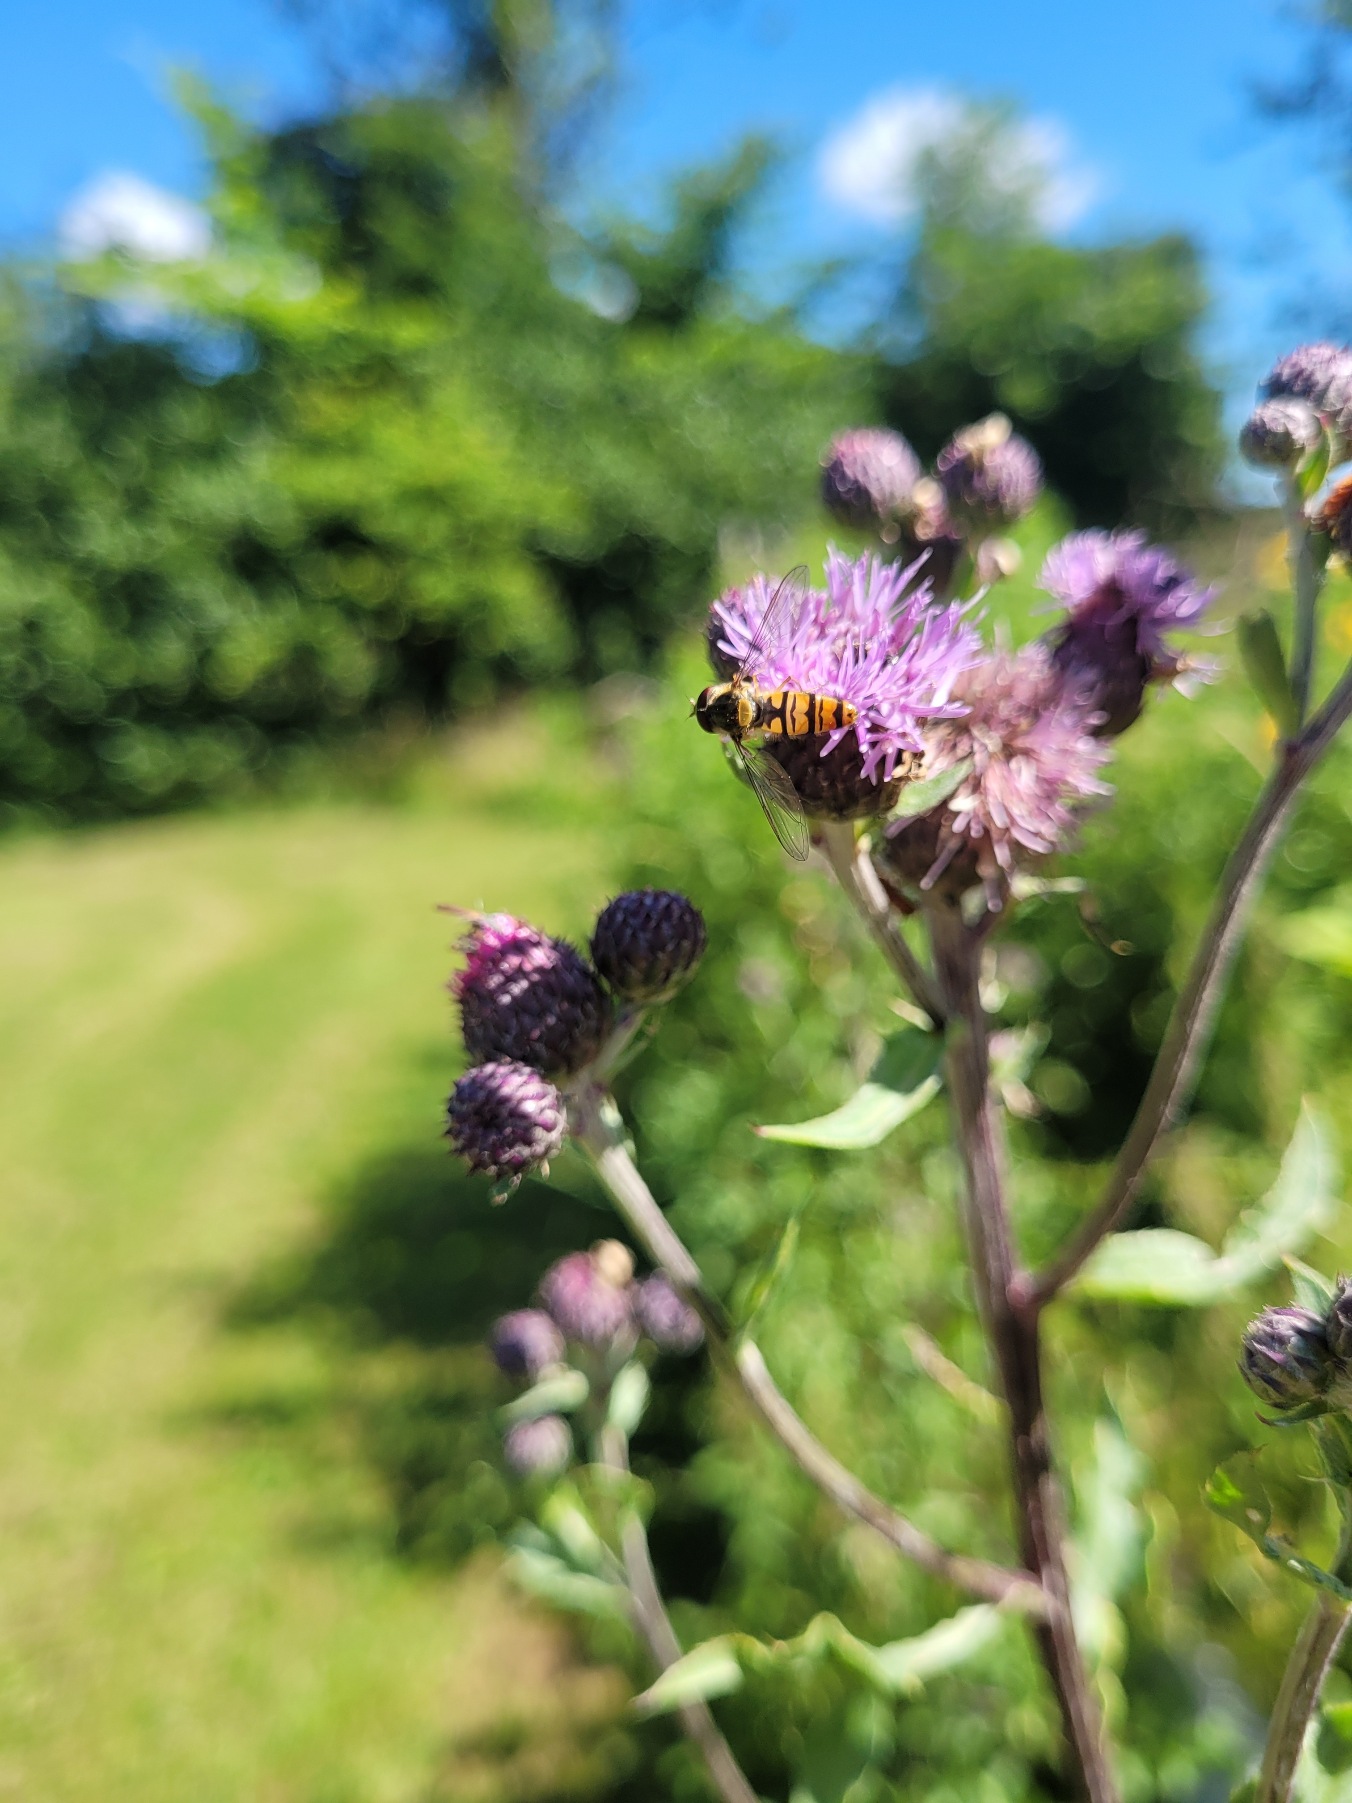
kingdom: Animalia
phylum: Arthropoda
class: Insecta
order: Diptera
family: Syrphidae
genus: Episyrphus
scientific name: Episyrphus balteatus
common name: Dobbeltbåndet svirreflue
